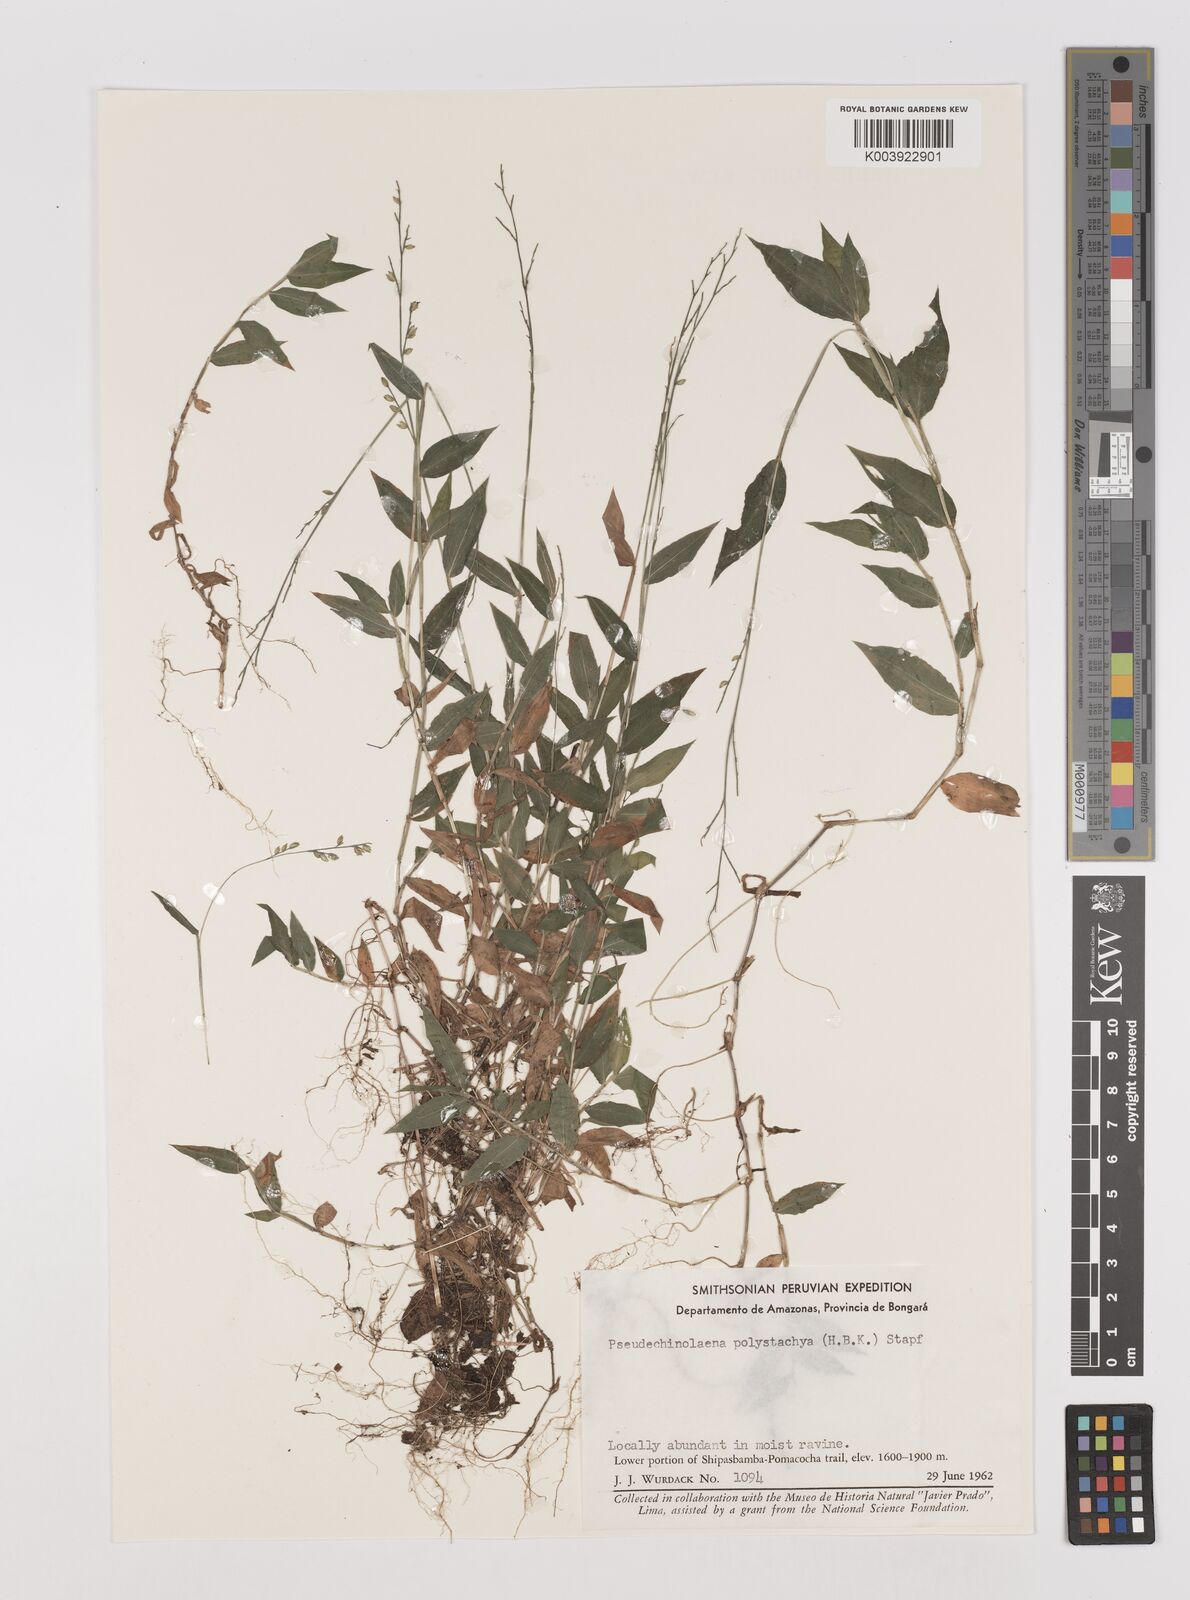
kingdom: Plantae
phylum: Tracheophyta
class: Liliopsida
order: Poales
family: Poaceae
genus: Pseudechinolaena
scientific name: Pseudechinolaena polystachya
